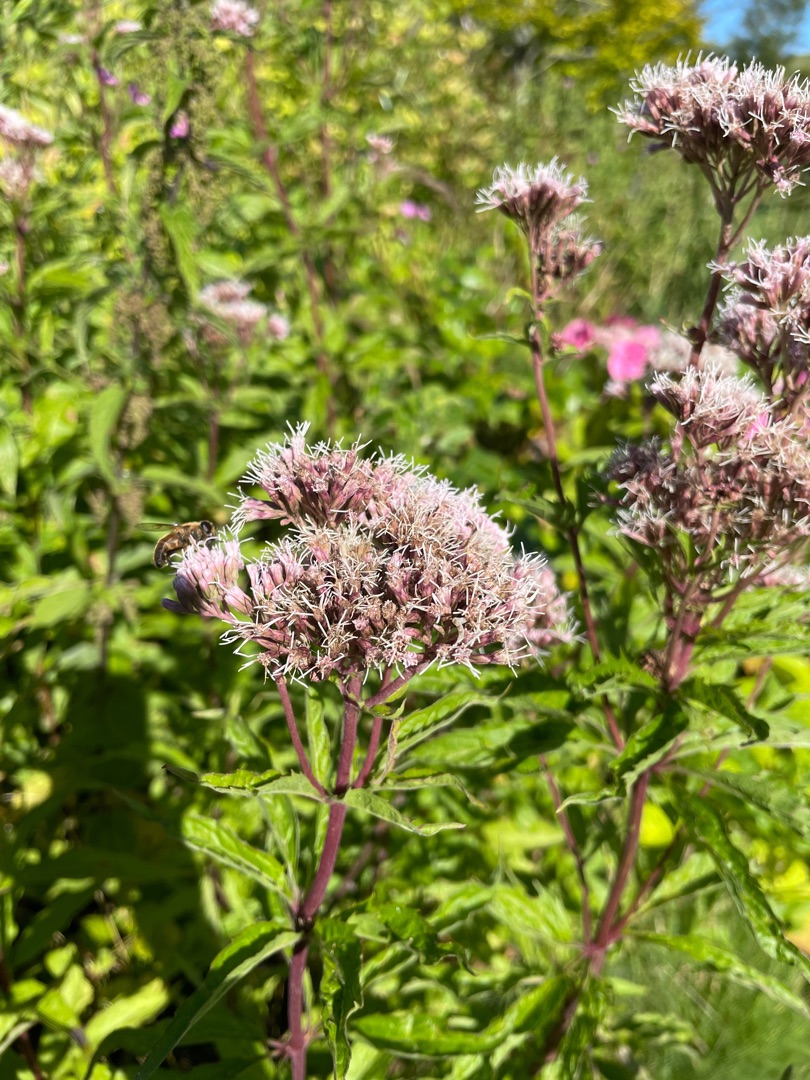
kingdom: Plantae
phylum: Tracheophyta
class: Magnoliopsida
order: Asterales
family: Asteraceae
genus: Eupatorium
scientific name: Eupatorium cannabinum
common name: Hjortetrøst
